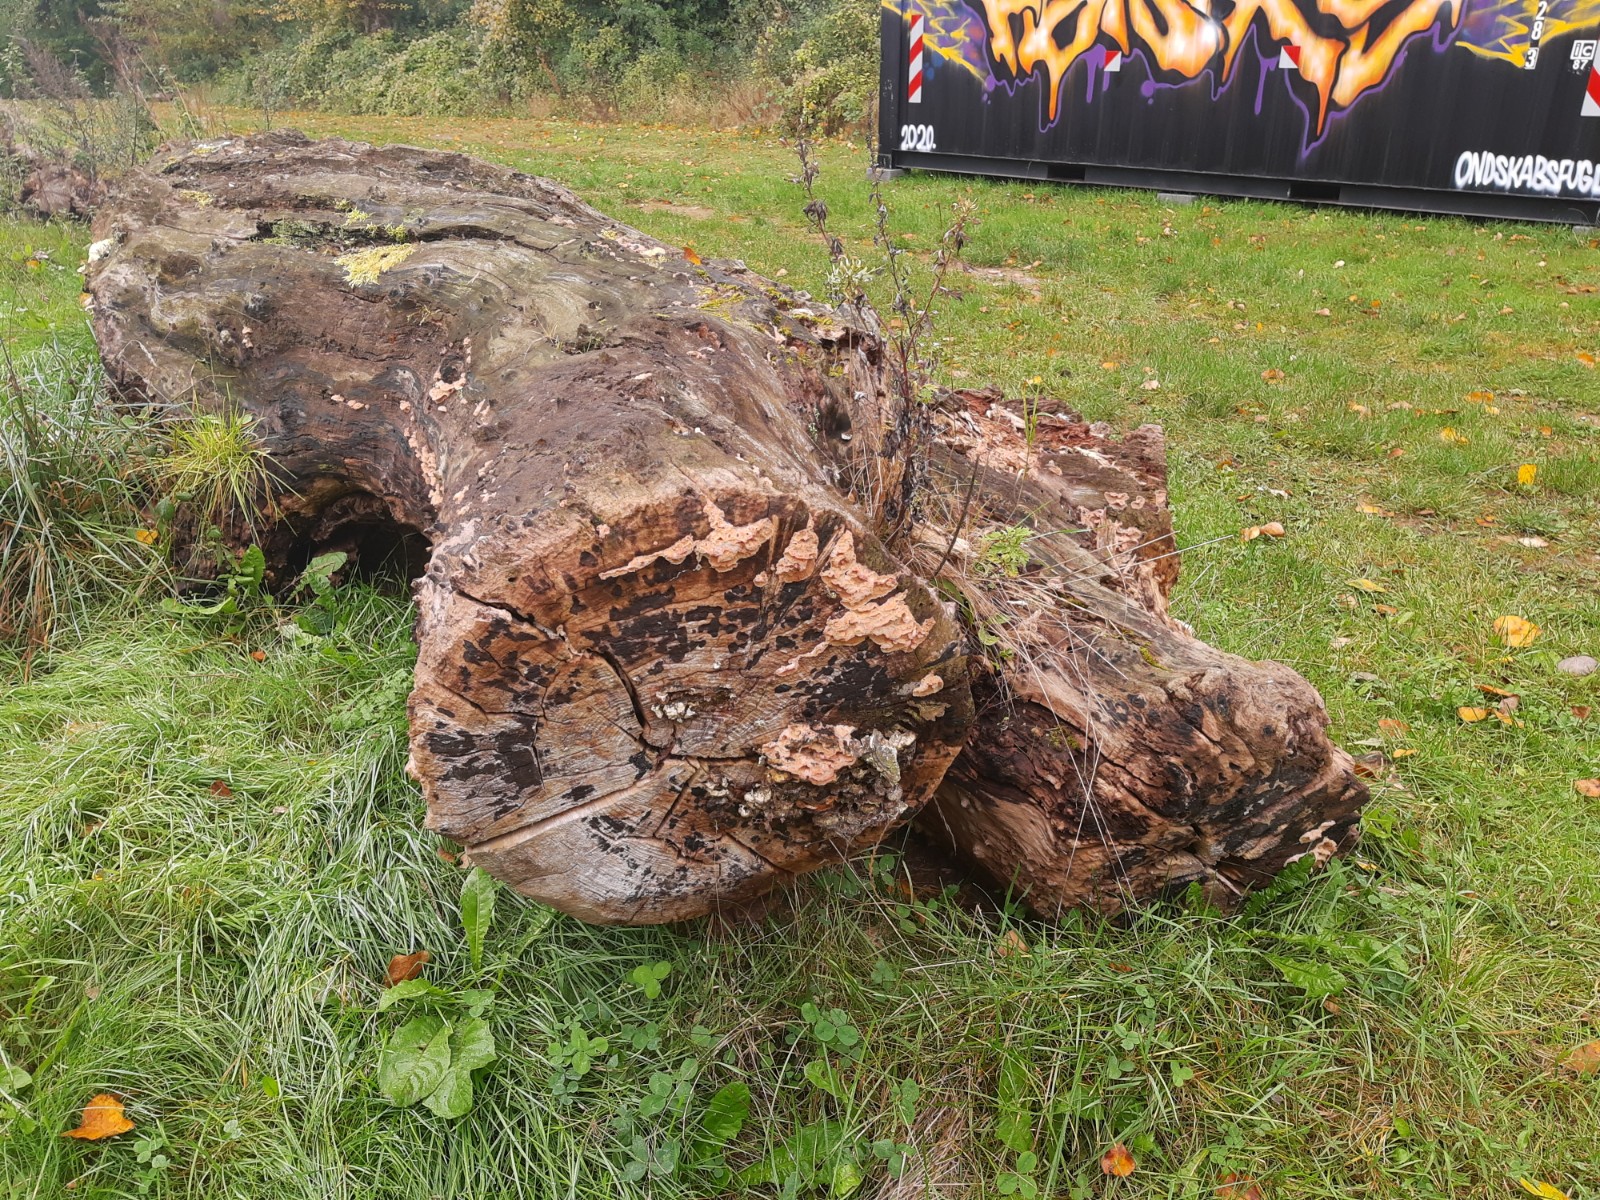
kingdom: Fungi
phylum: Basidiomycota
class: Agaricomycetes
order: Polyporales
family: Meruliaceae
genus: Phlebia
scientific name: Phlebia tremellosa
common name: bævrende åresvamp
